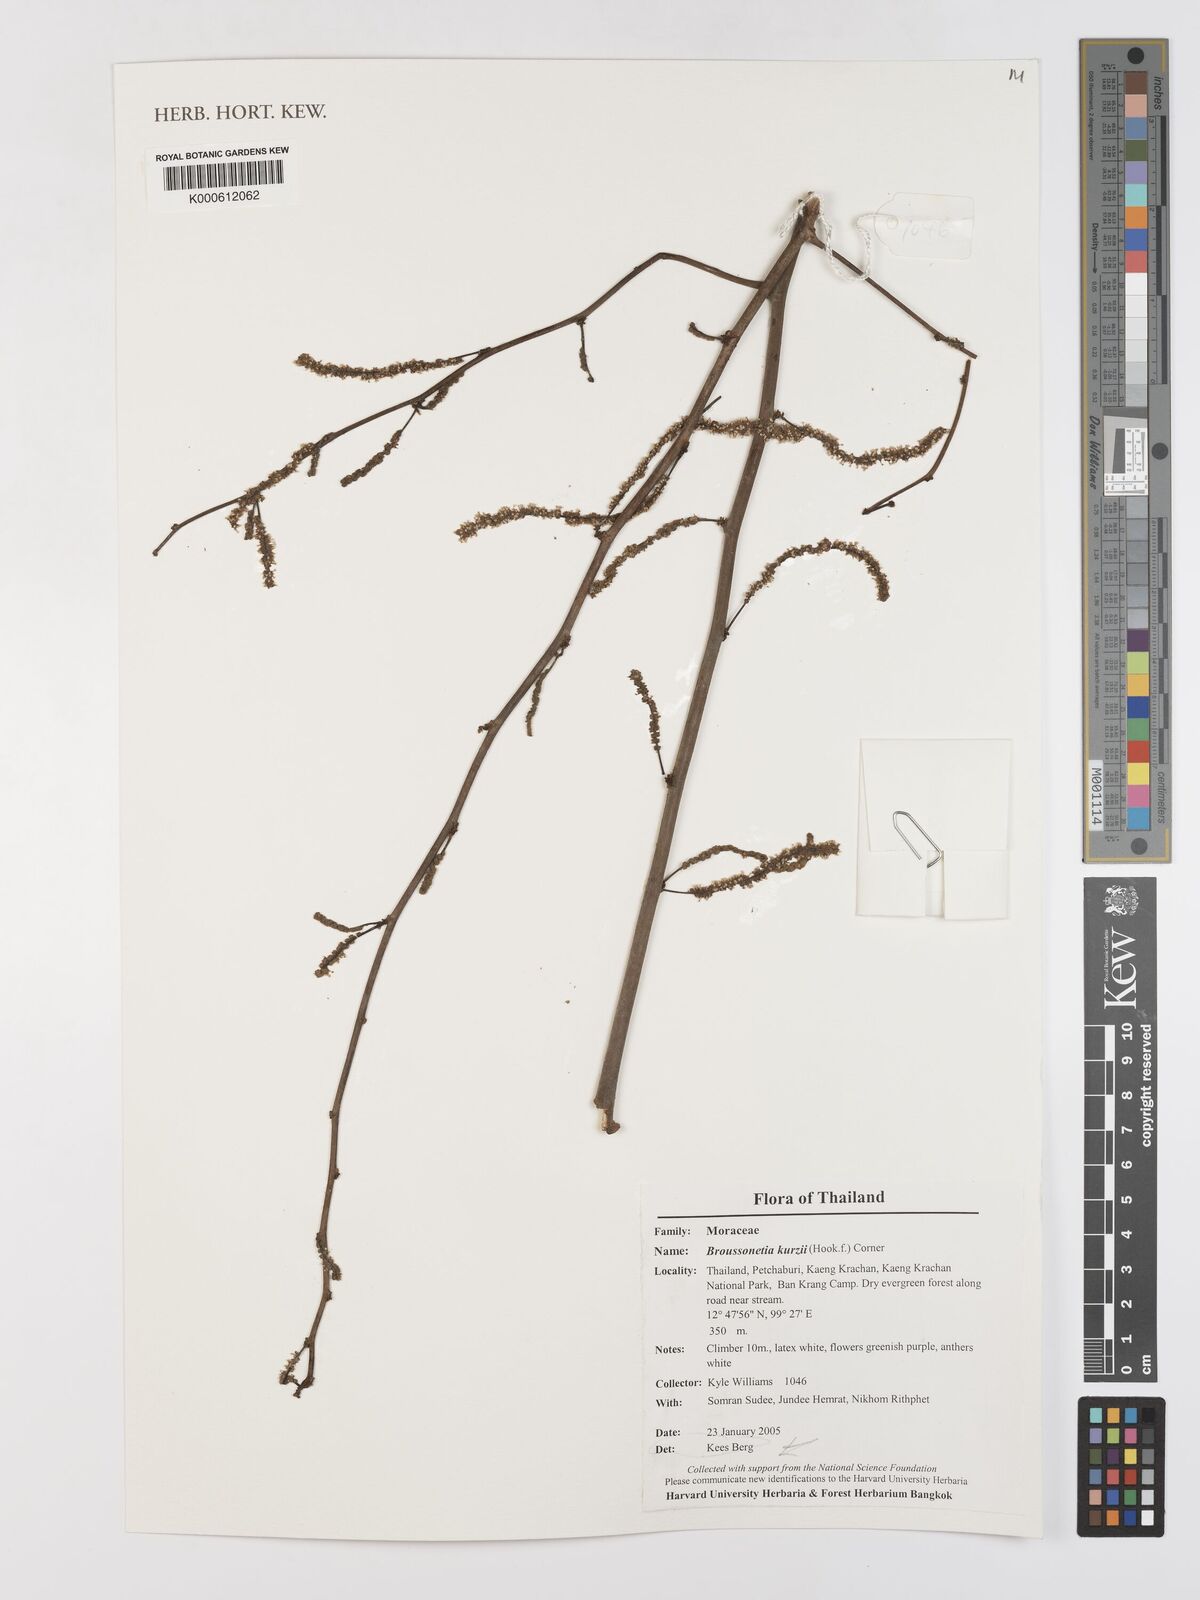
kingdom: Plantae
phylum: Tracheophyta
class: Magnoliopsida
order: Rosales
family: Moraceae
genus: Allaeanthus
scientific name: Allaeanthus kurzii
